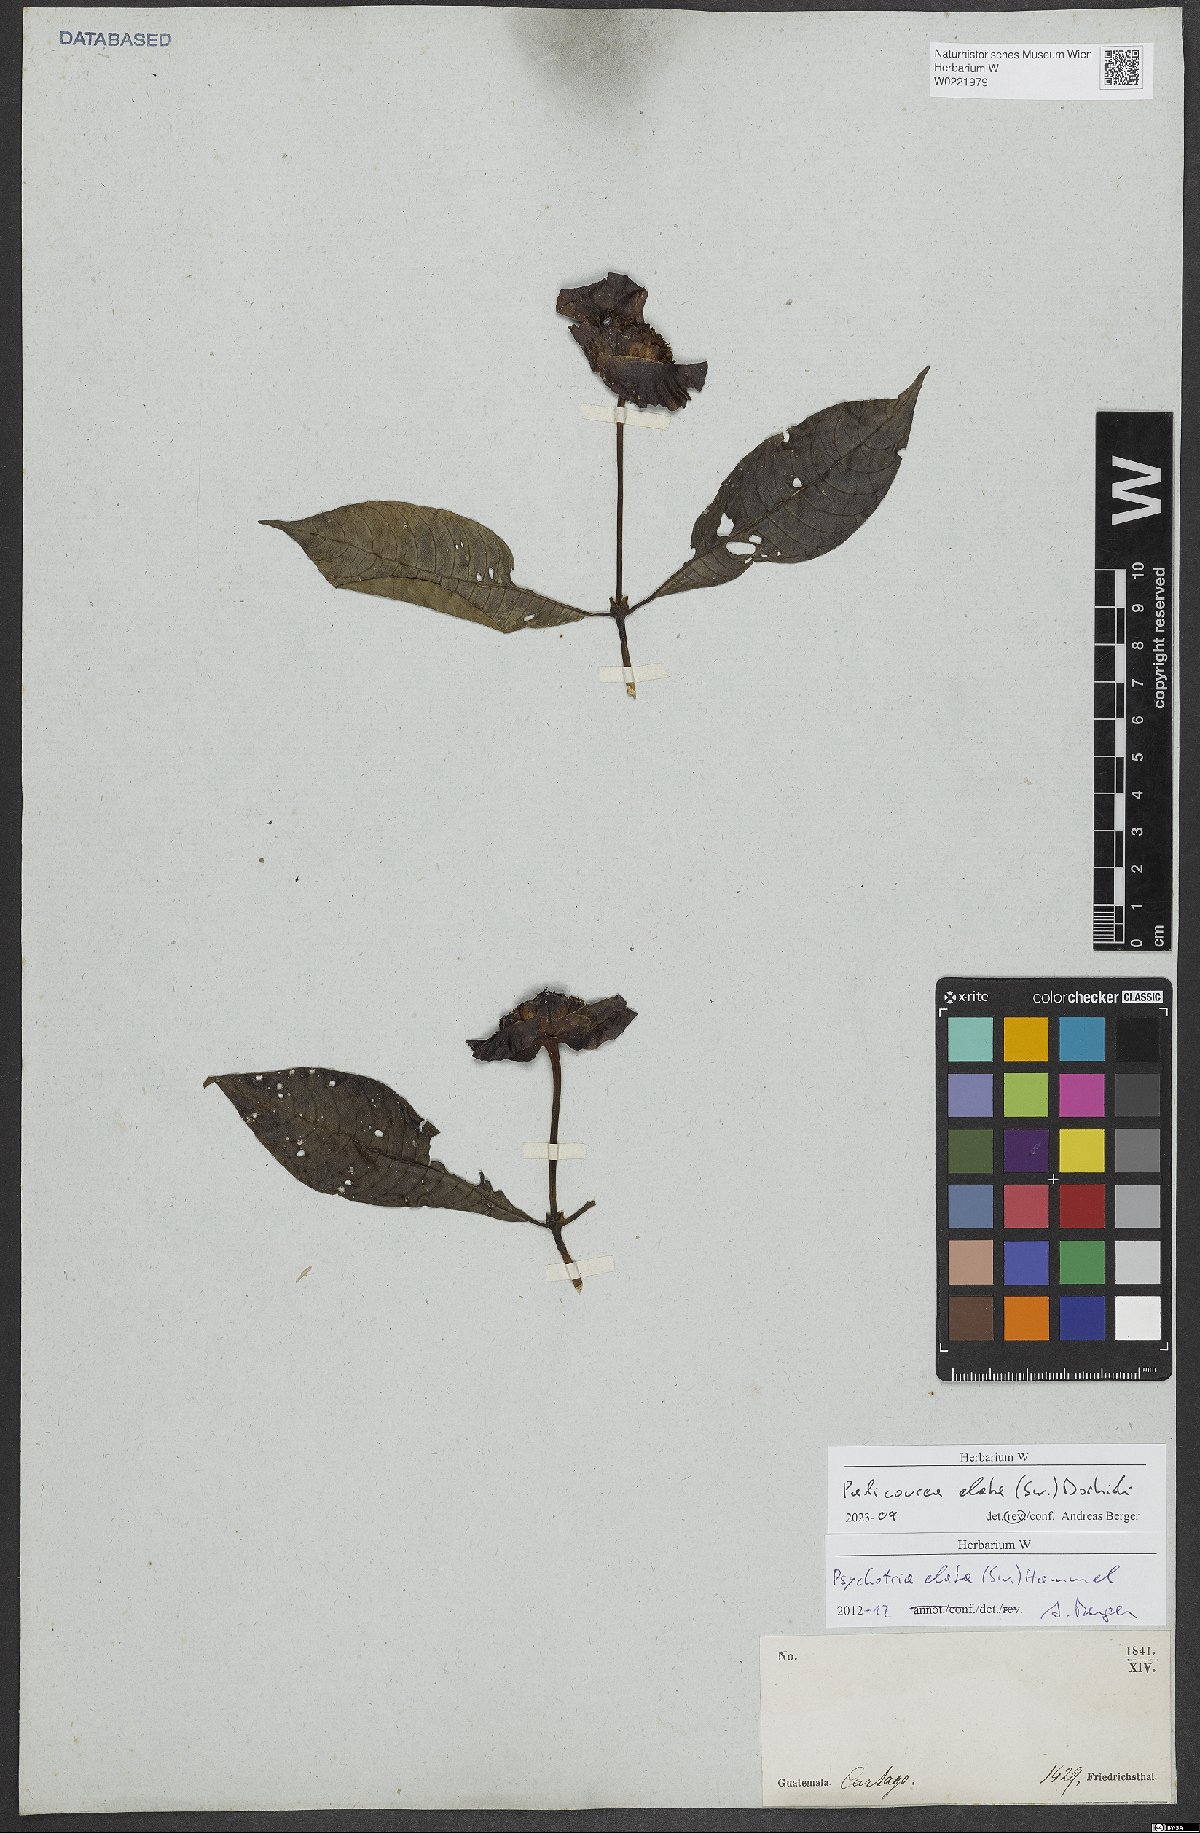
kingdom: Plantae
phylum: Tracheophyta
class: Magnoliopsida
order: Gentianales
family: Rubiaceae
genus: Palicourea
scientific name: Palicourea elata
